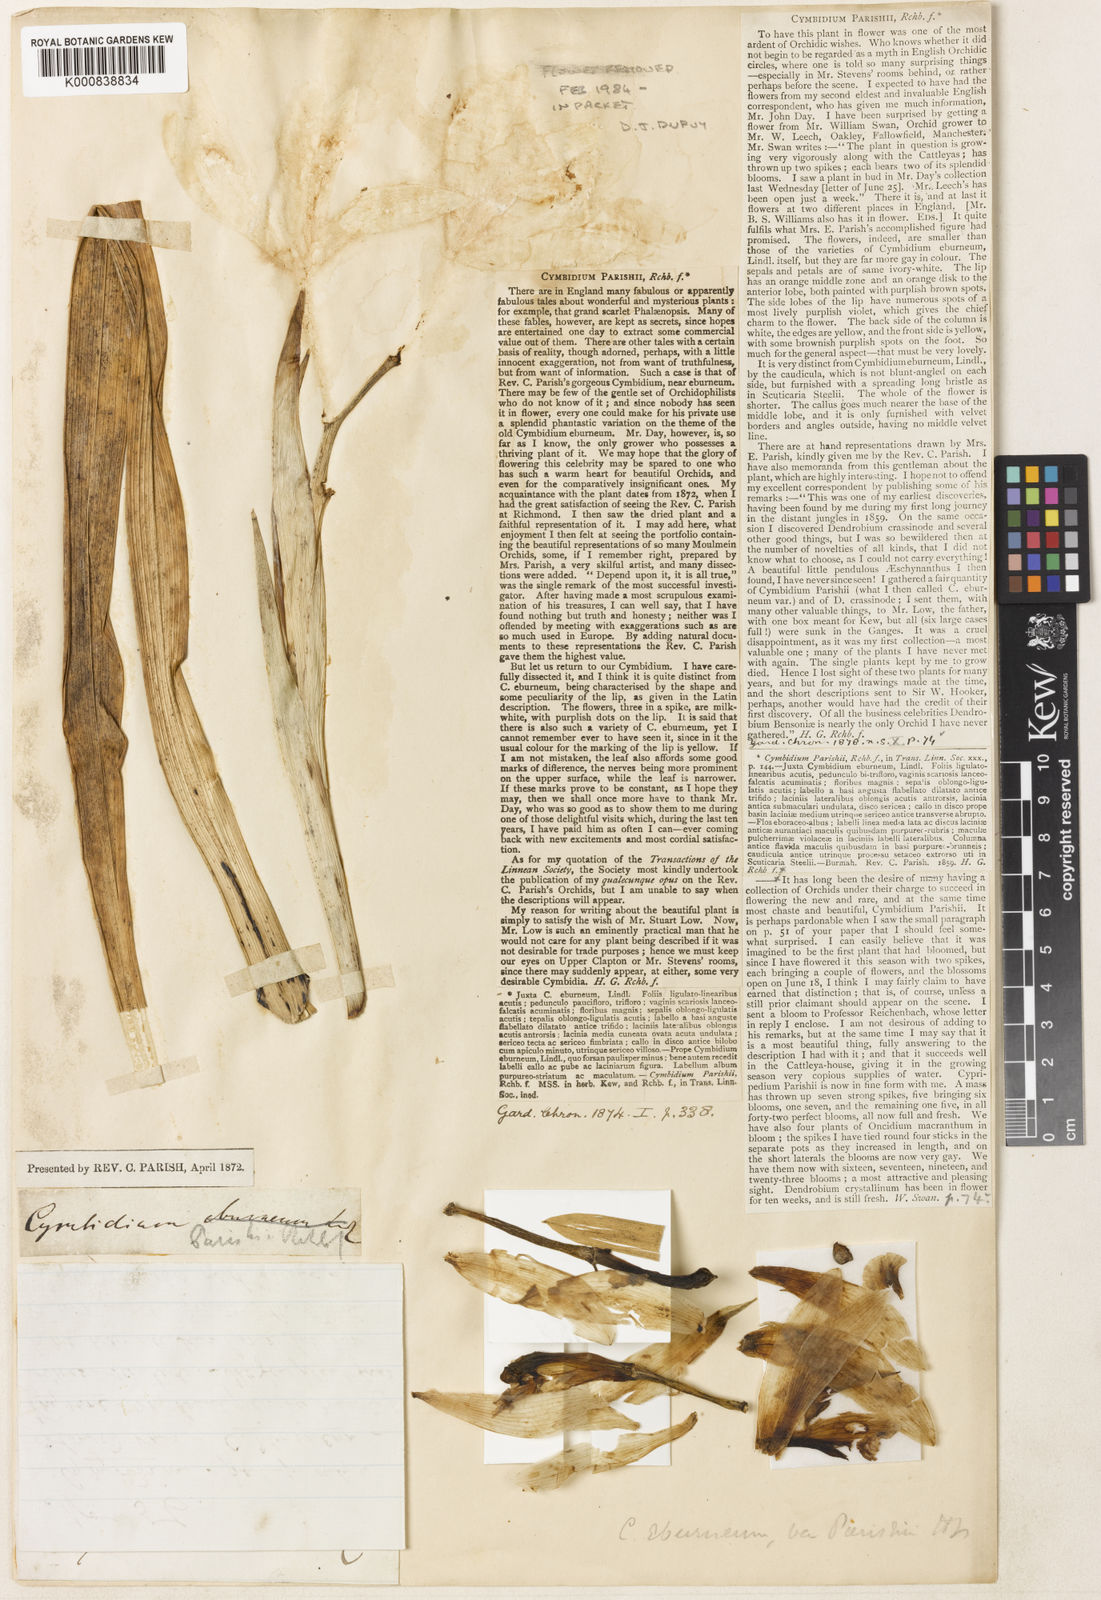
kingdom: Plantae
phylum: Tracheophyta
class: Liliopsida
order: Asparagales
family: Orchidaceae
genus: Cymbidium
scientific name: Cymbidium parishii
